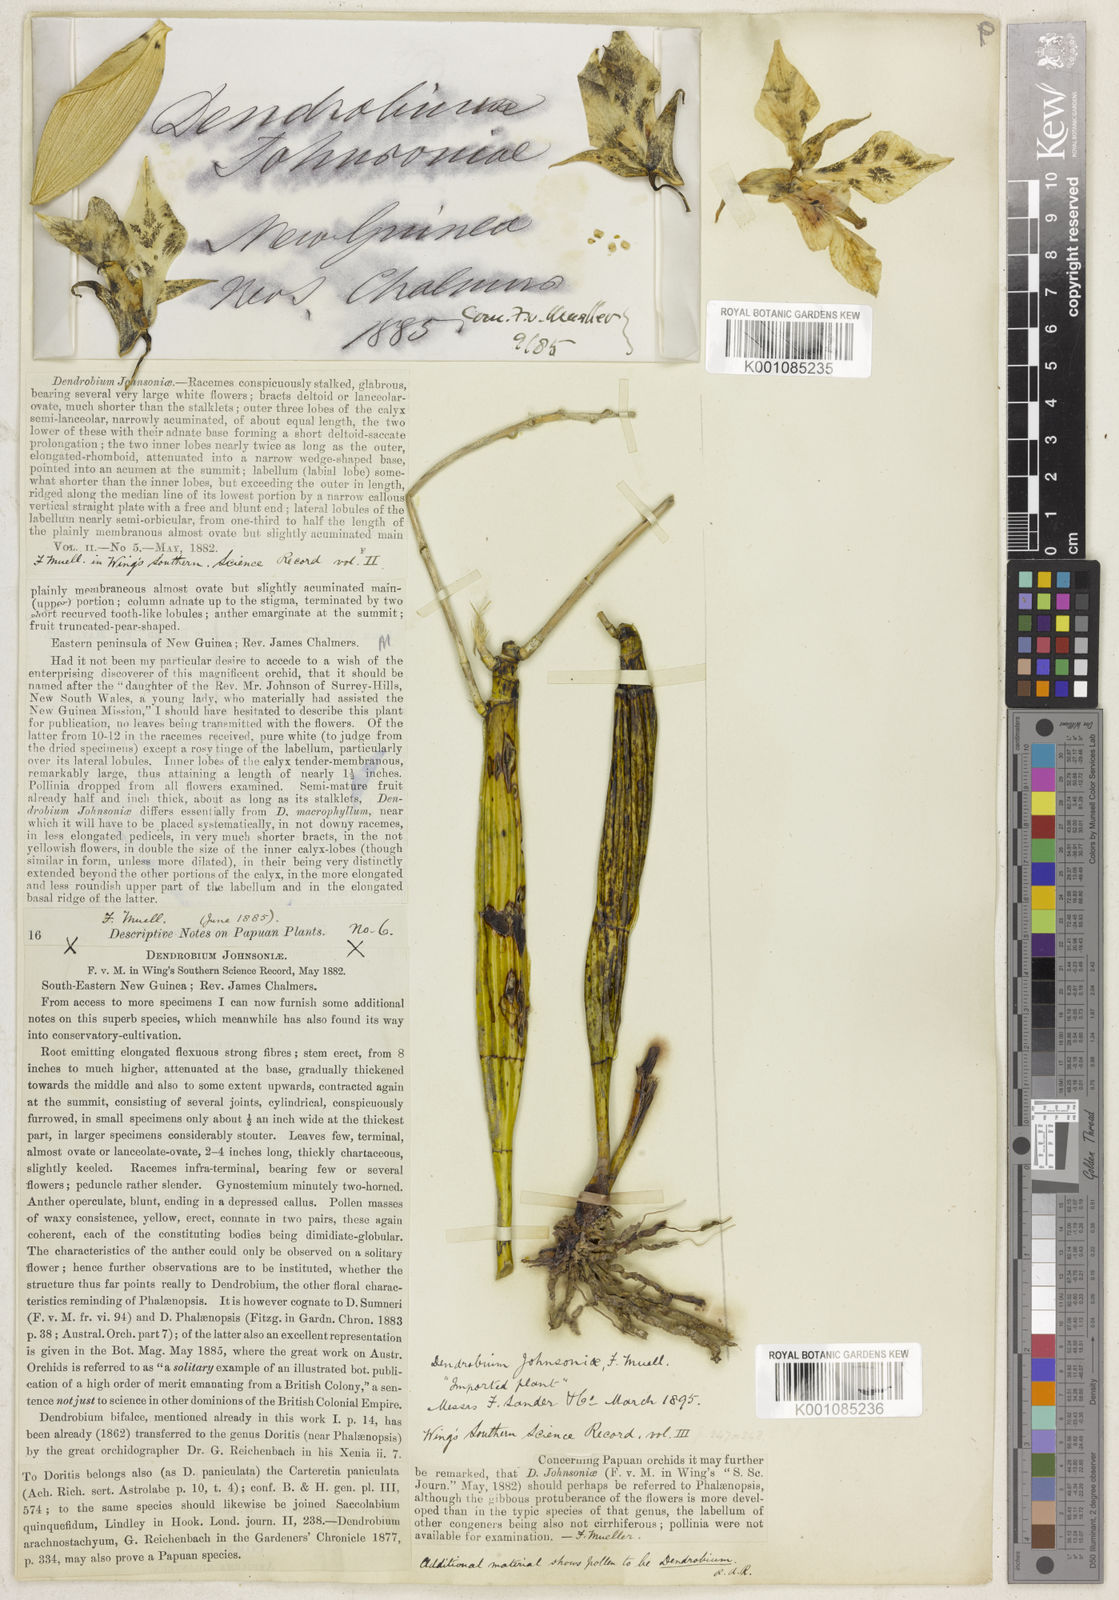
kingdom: Plantae
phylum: Tracheophyta
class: Liliopsida
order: Asparagales
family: Orchidaceae
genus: Dendrobium
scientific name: Dendrobium johnsoniae
